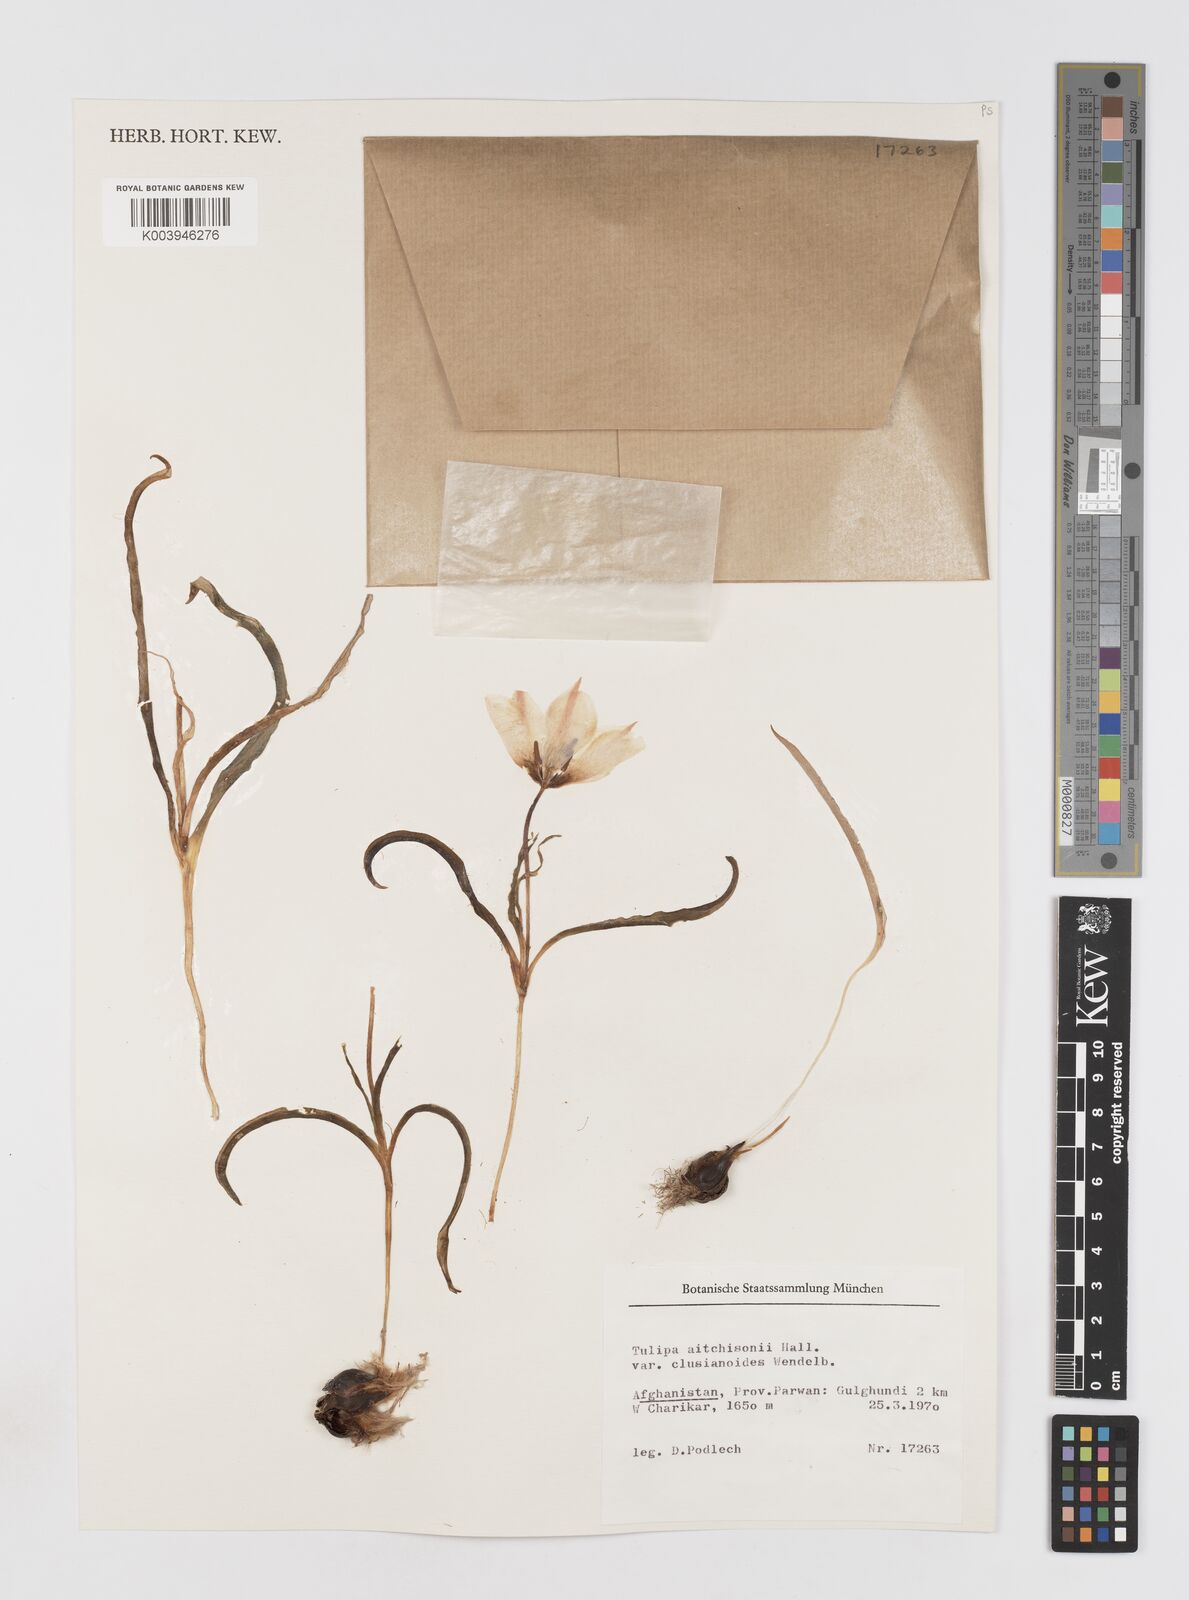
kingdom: Plantae
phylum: Tracheophyta
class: Liliopsida
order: Liliales
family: Liliaceae
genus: Tulipa
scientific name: Tulipa clusiana
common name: Lady tulip
